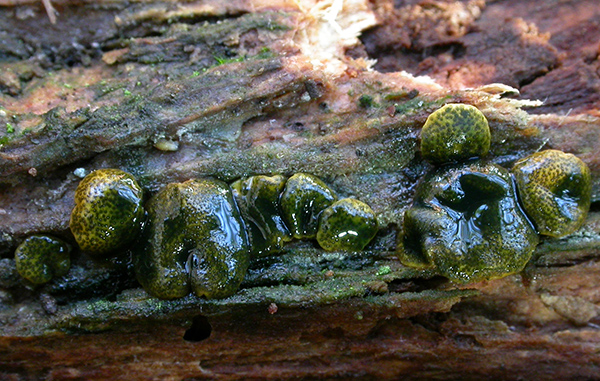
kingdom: Fungi
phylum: Ascomycota
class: Sordariomycetes
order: Hypocreales
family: Hypocreaceae
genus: Trichoderma
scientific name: Trichoderma aureoviride
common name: æggegul kødkerne
